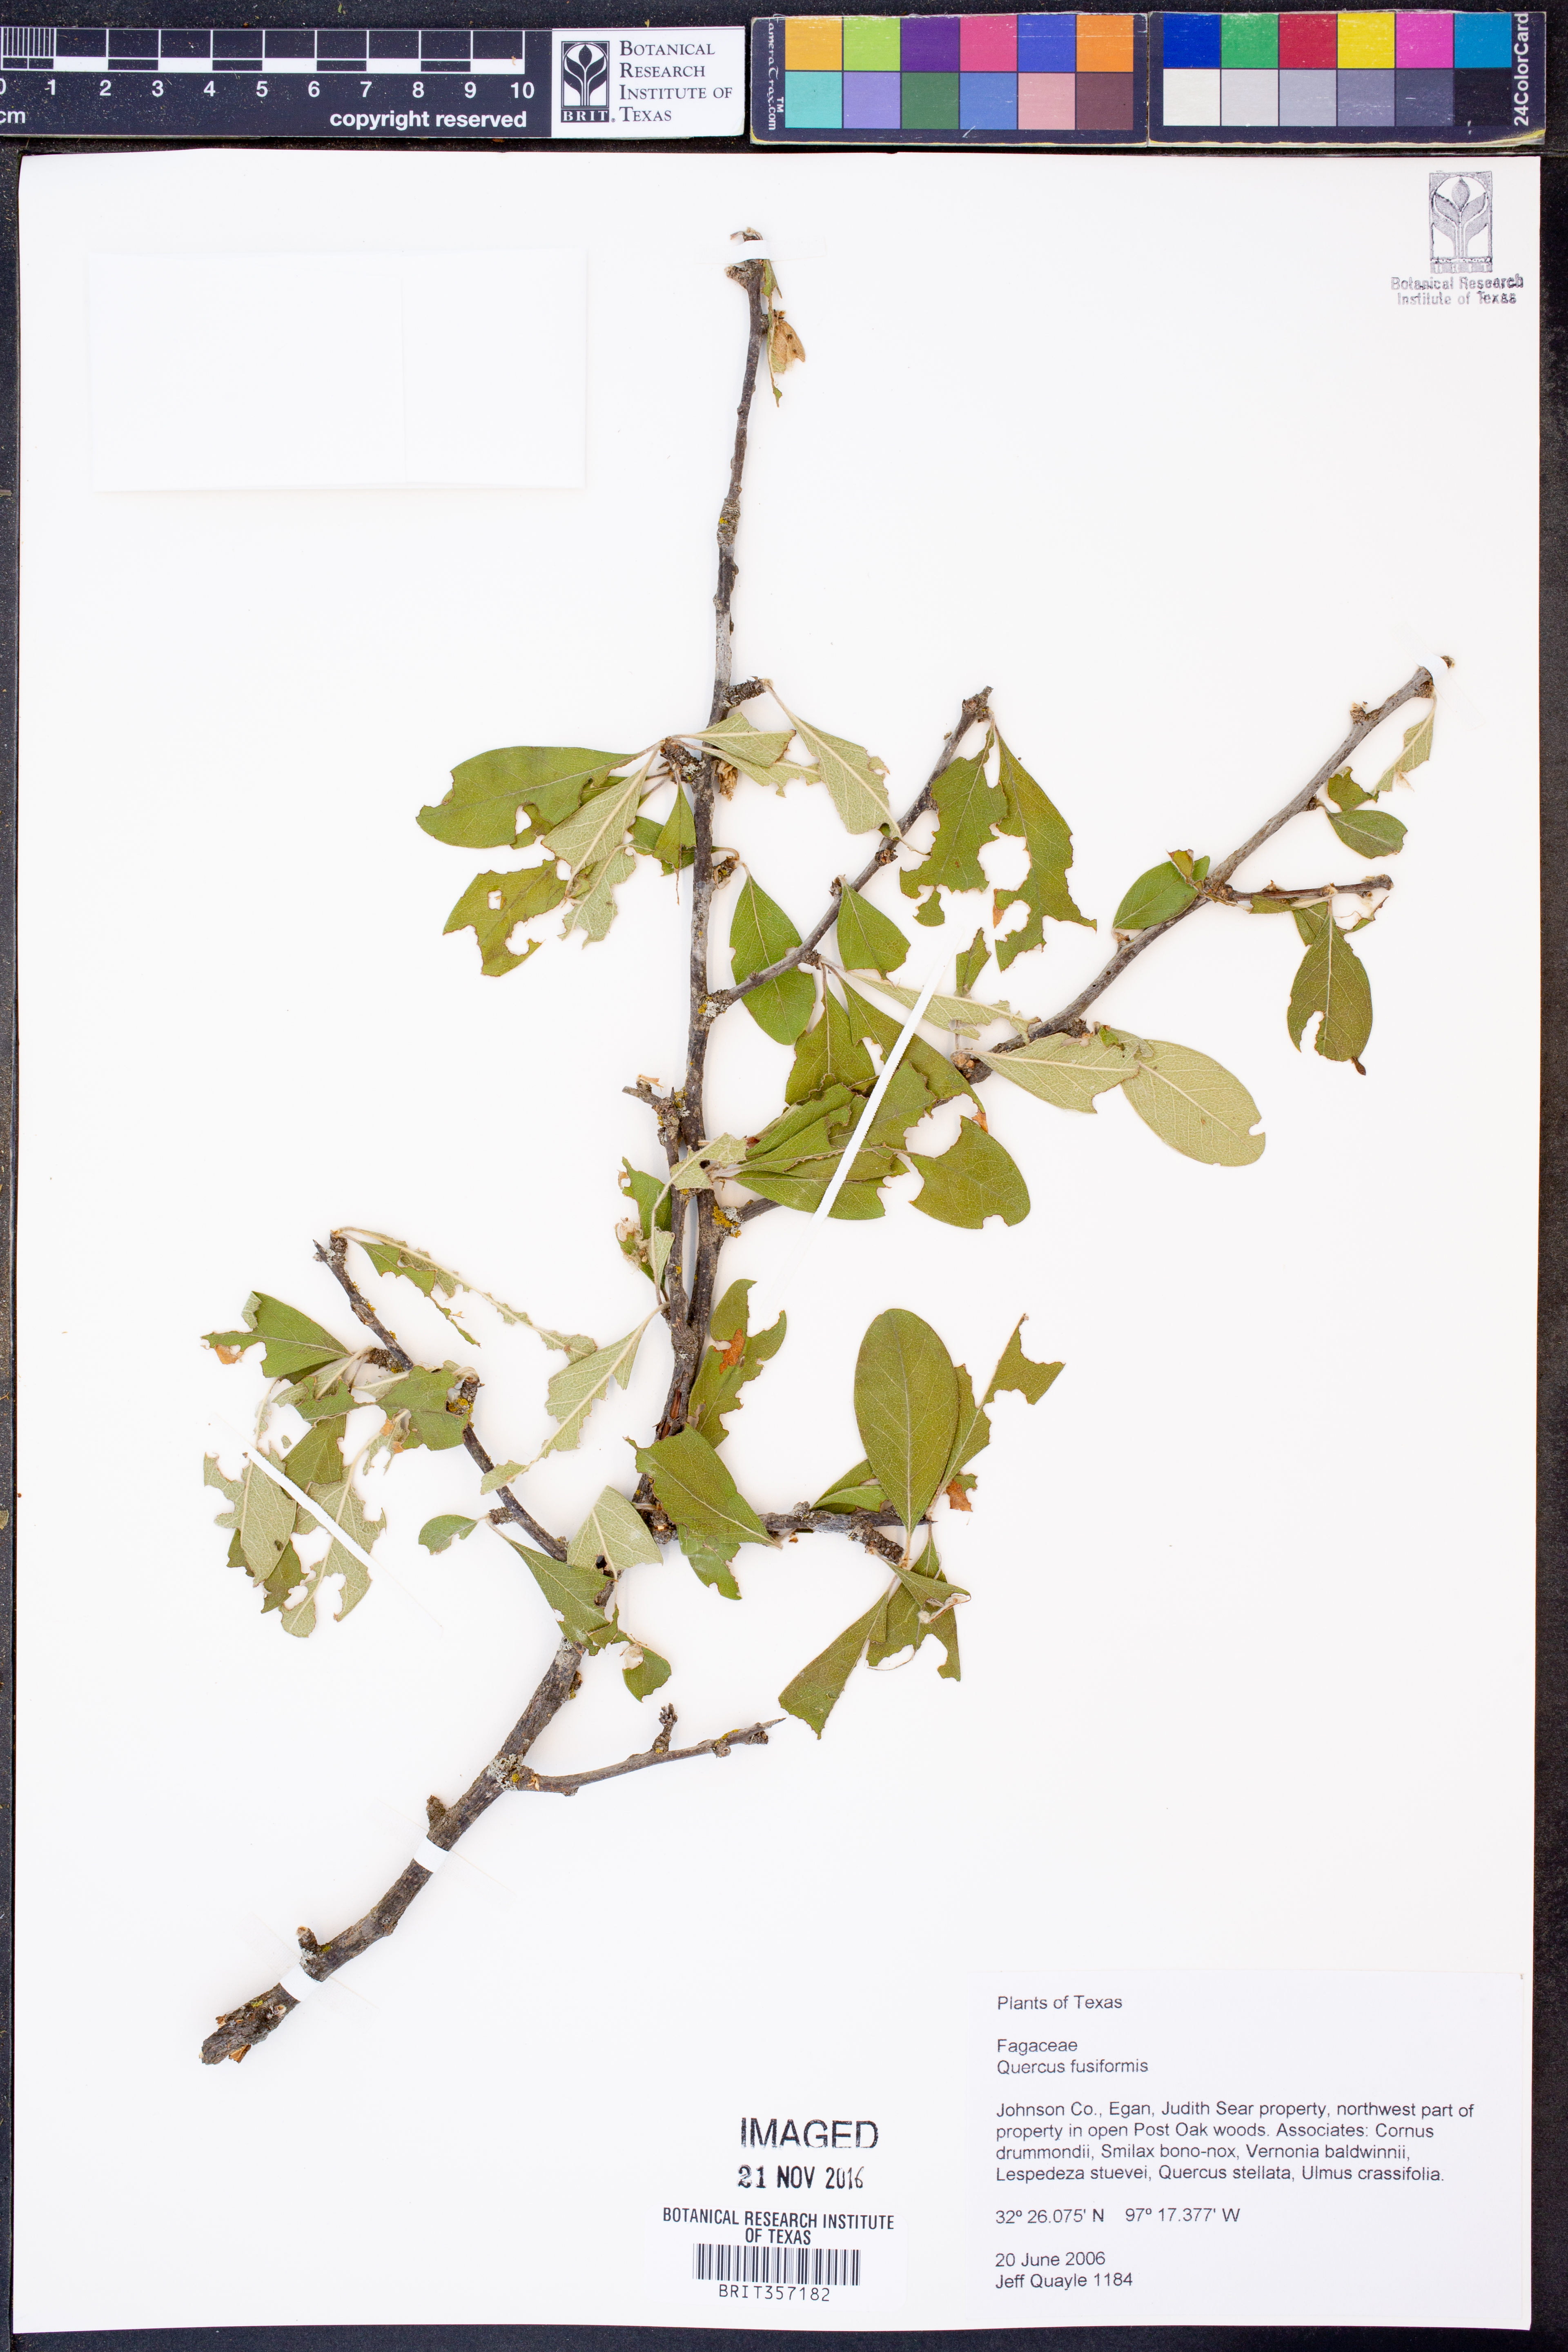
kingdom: Plantae
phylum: Tracheophyta
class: Magnoliopsida
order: Fagales
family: Fagaceae
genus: Quercus
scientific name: Quercus fusiformis
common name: Texas live oak
